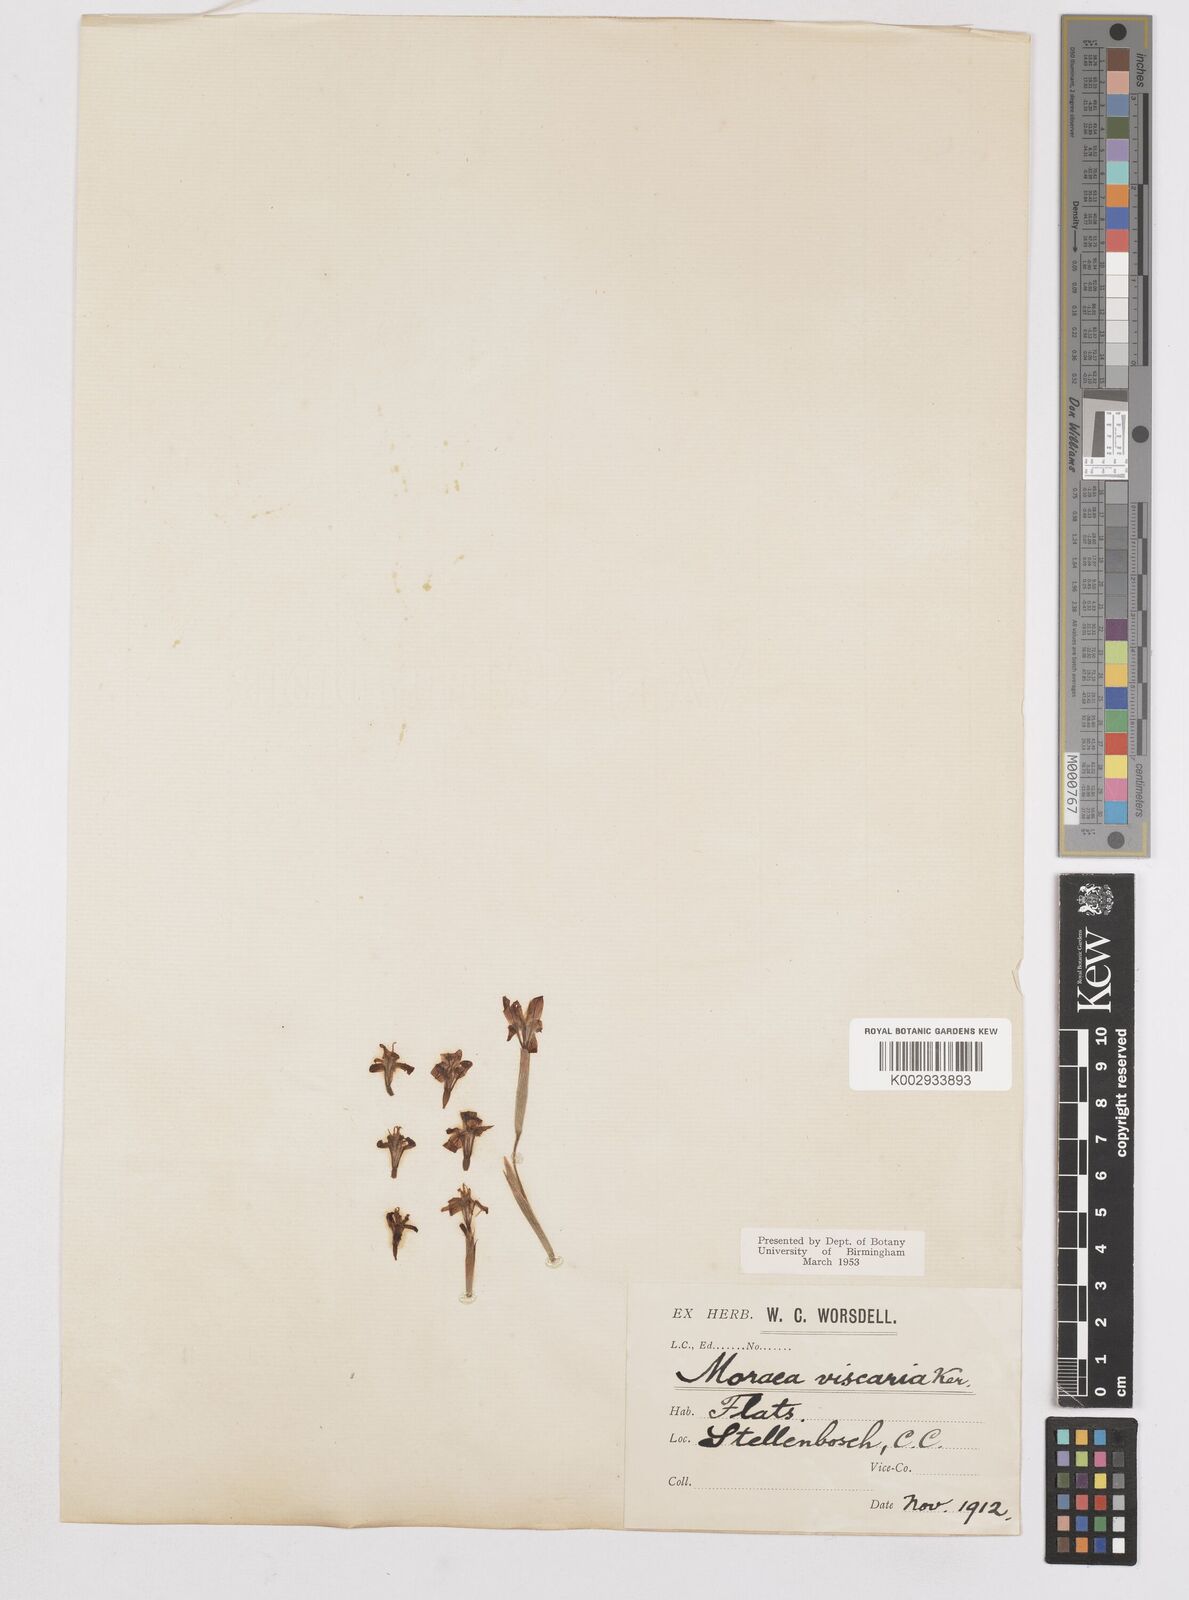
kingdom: Plantae
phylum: Tracheophyta
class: Liliopsida
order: Asparagales
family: Iridaceae
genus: Moraea
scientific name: Moraea viscaria
